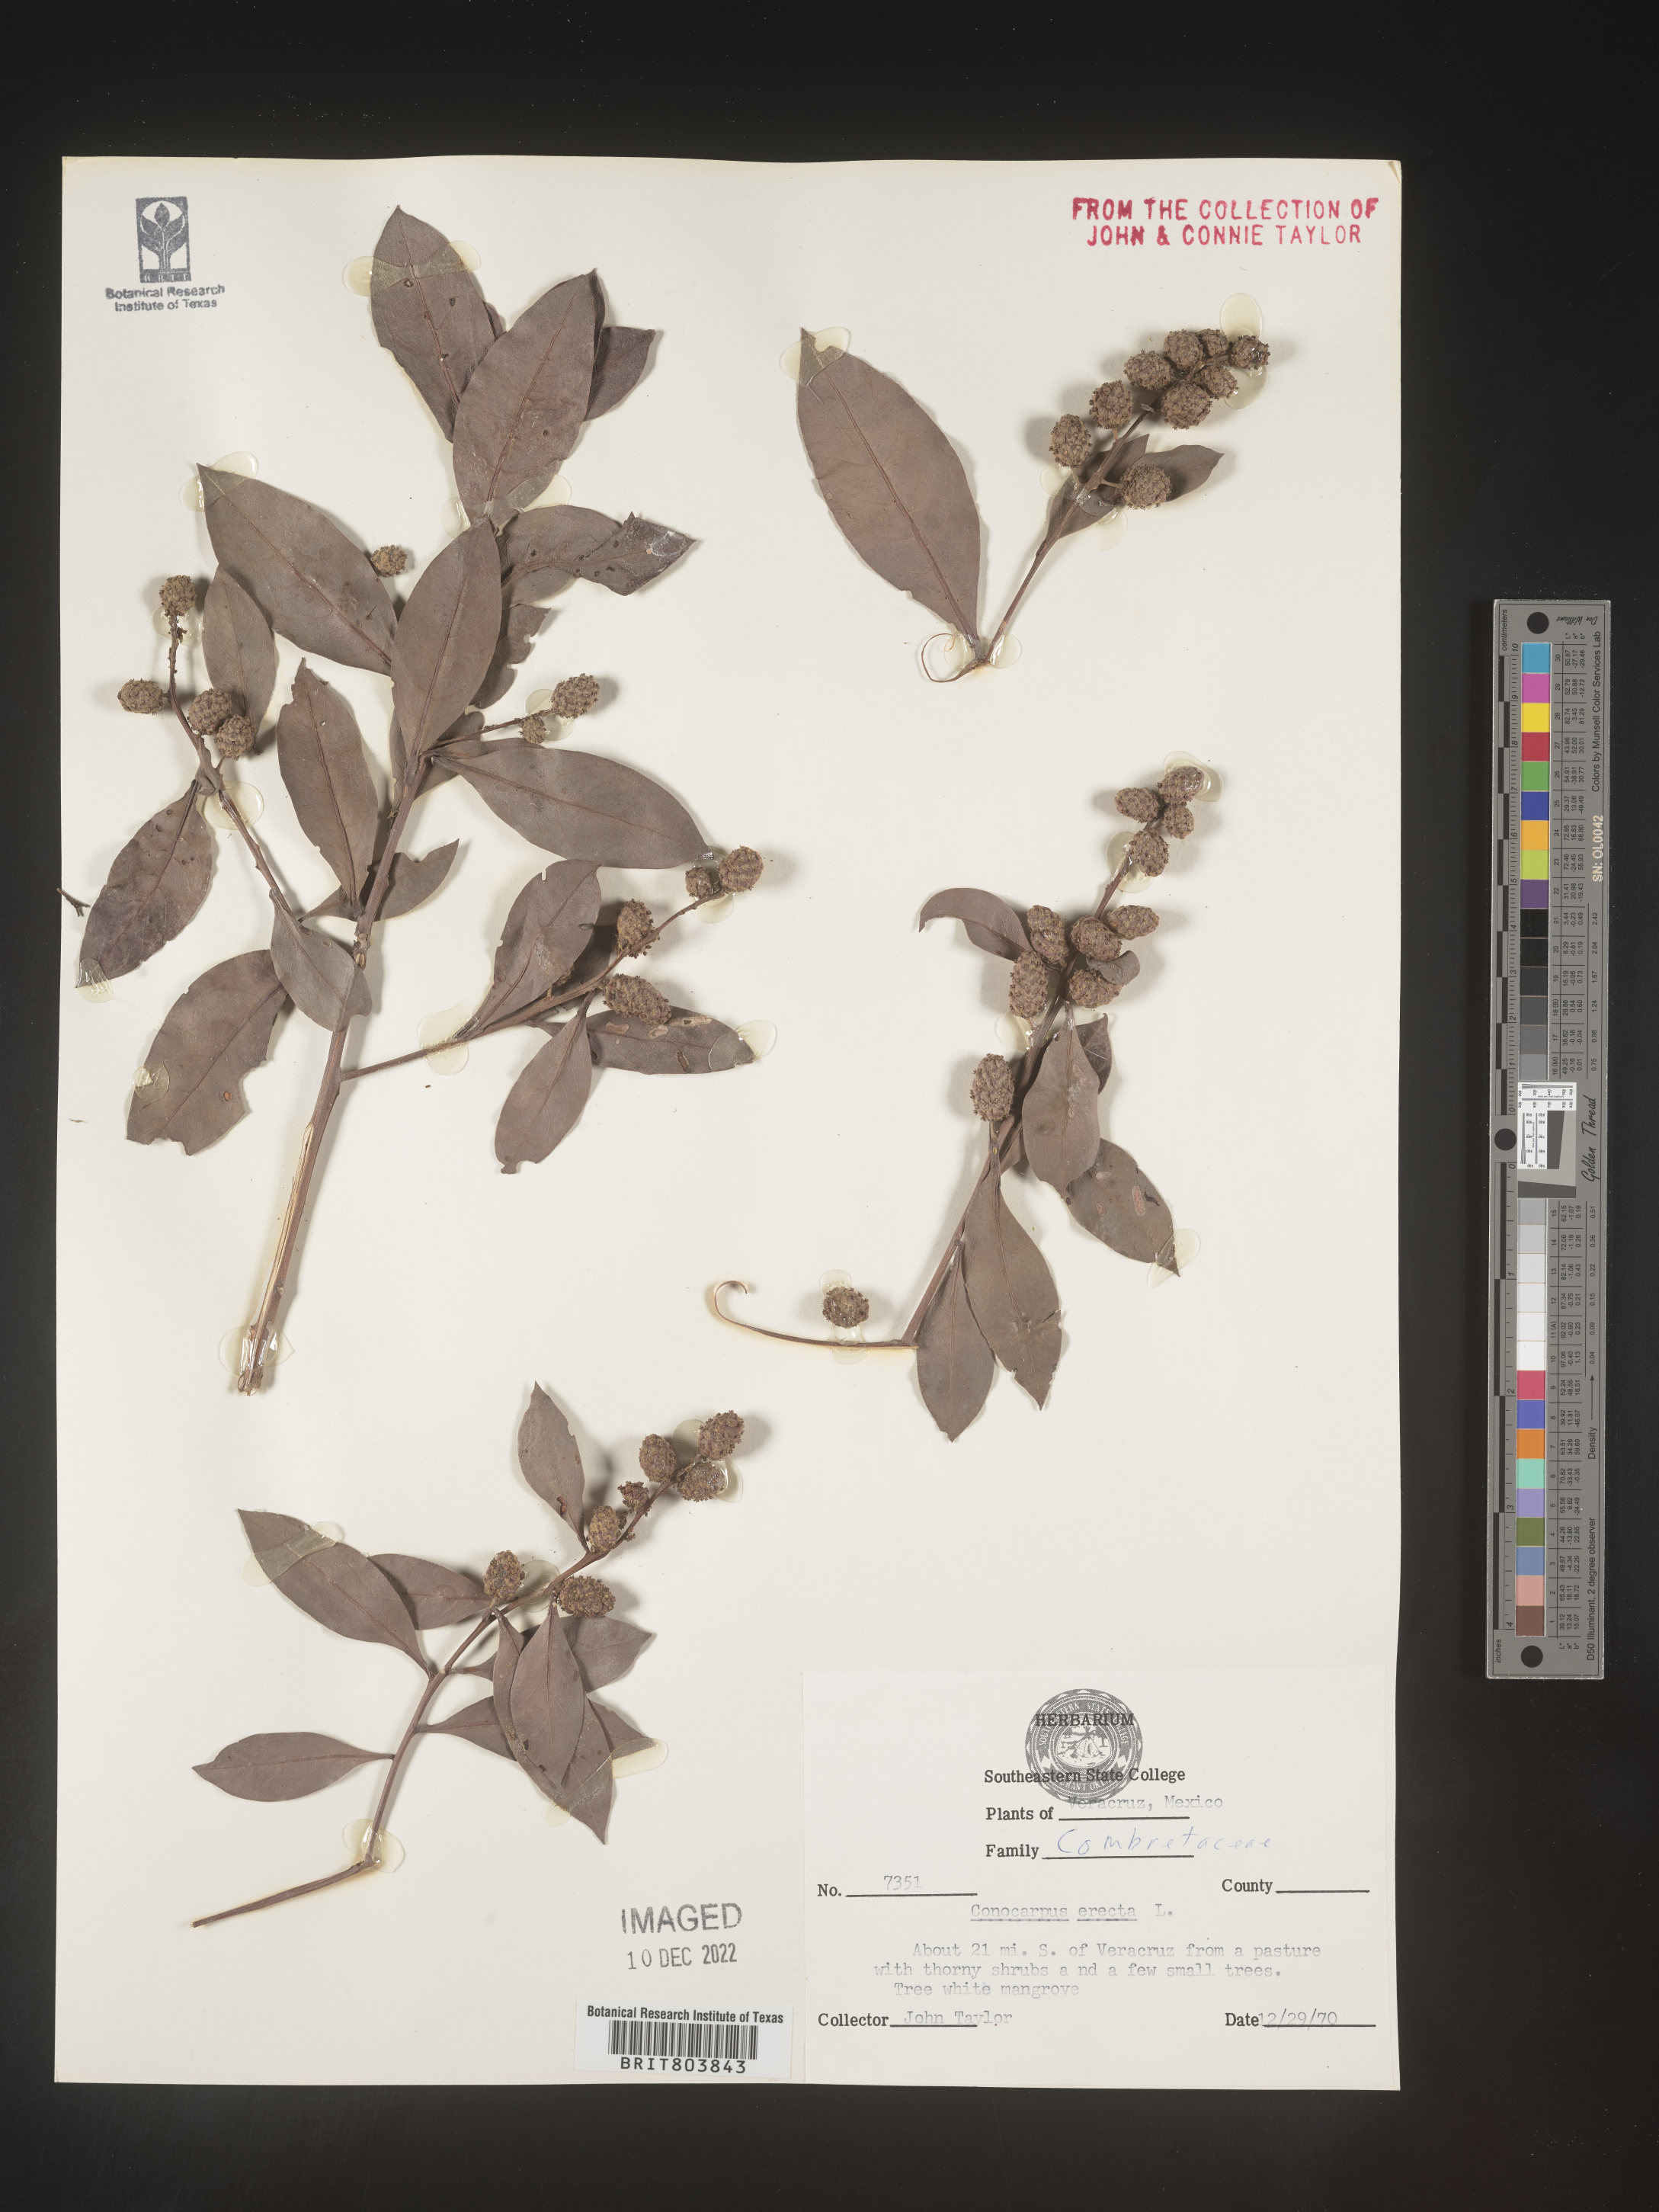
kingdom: Plantae
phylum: Tracheophyta
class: Magnoliopsida
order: Myrtales
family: Combretaceae
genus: Conocarpus
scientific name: Conocarpus
